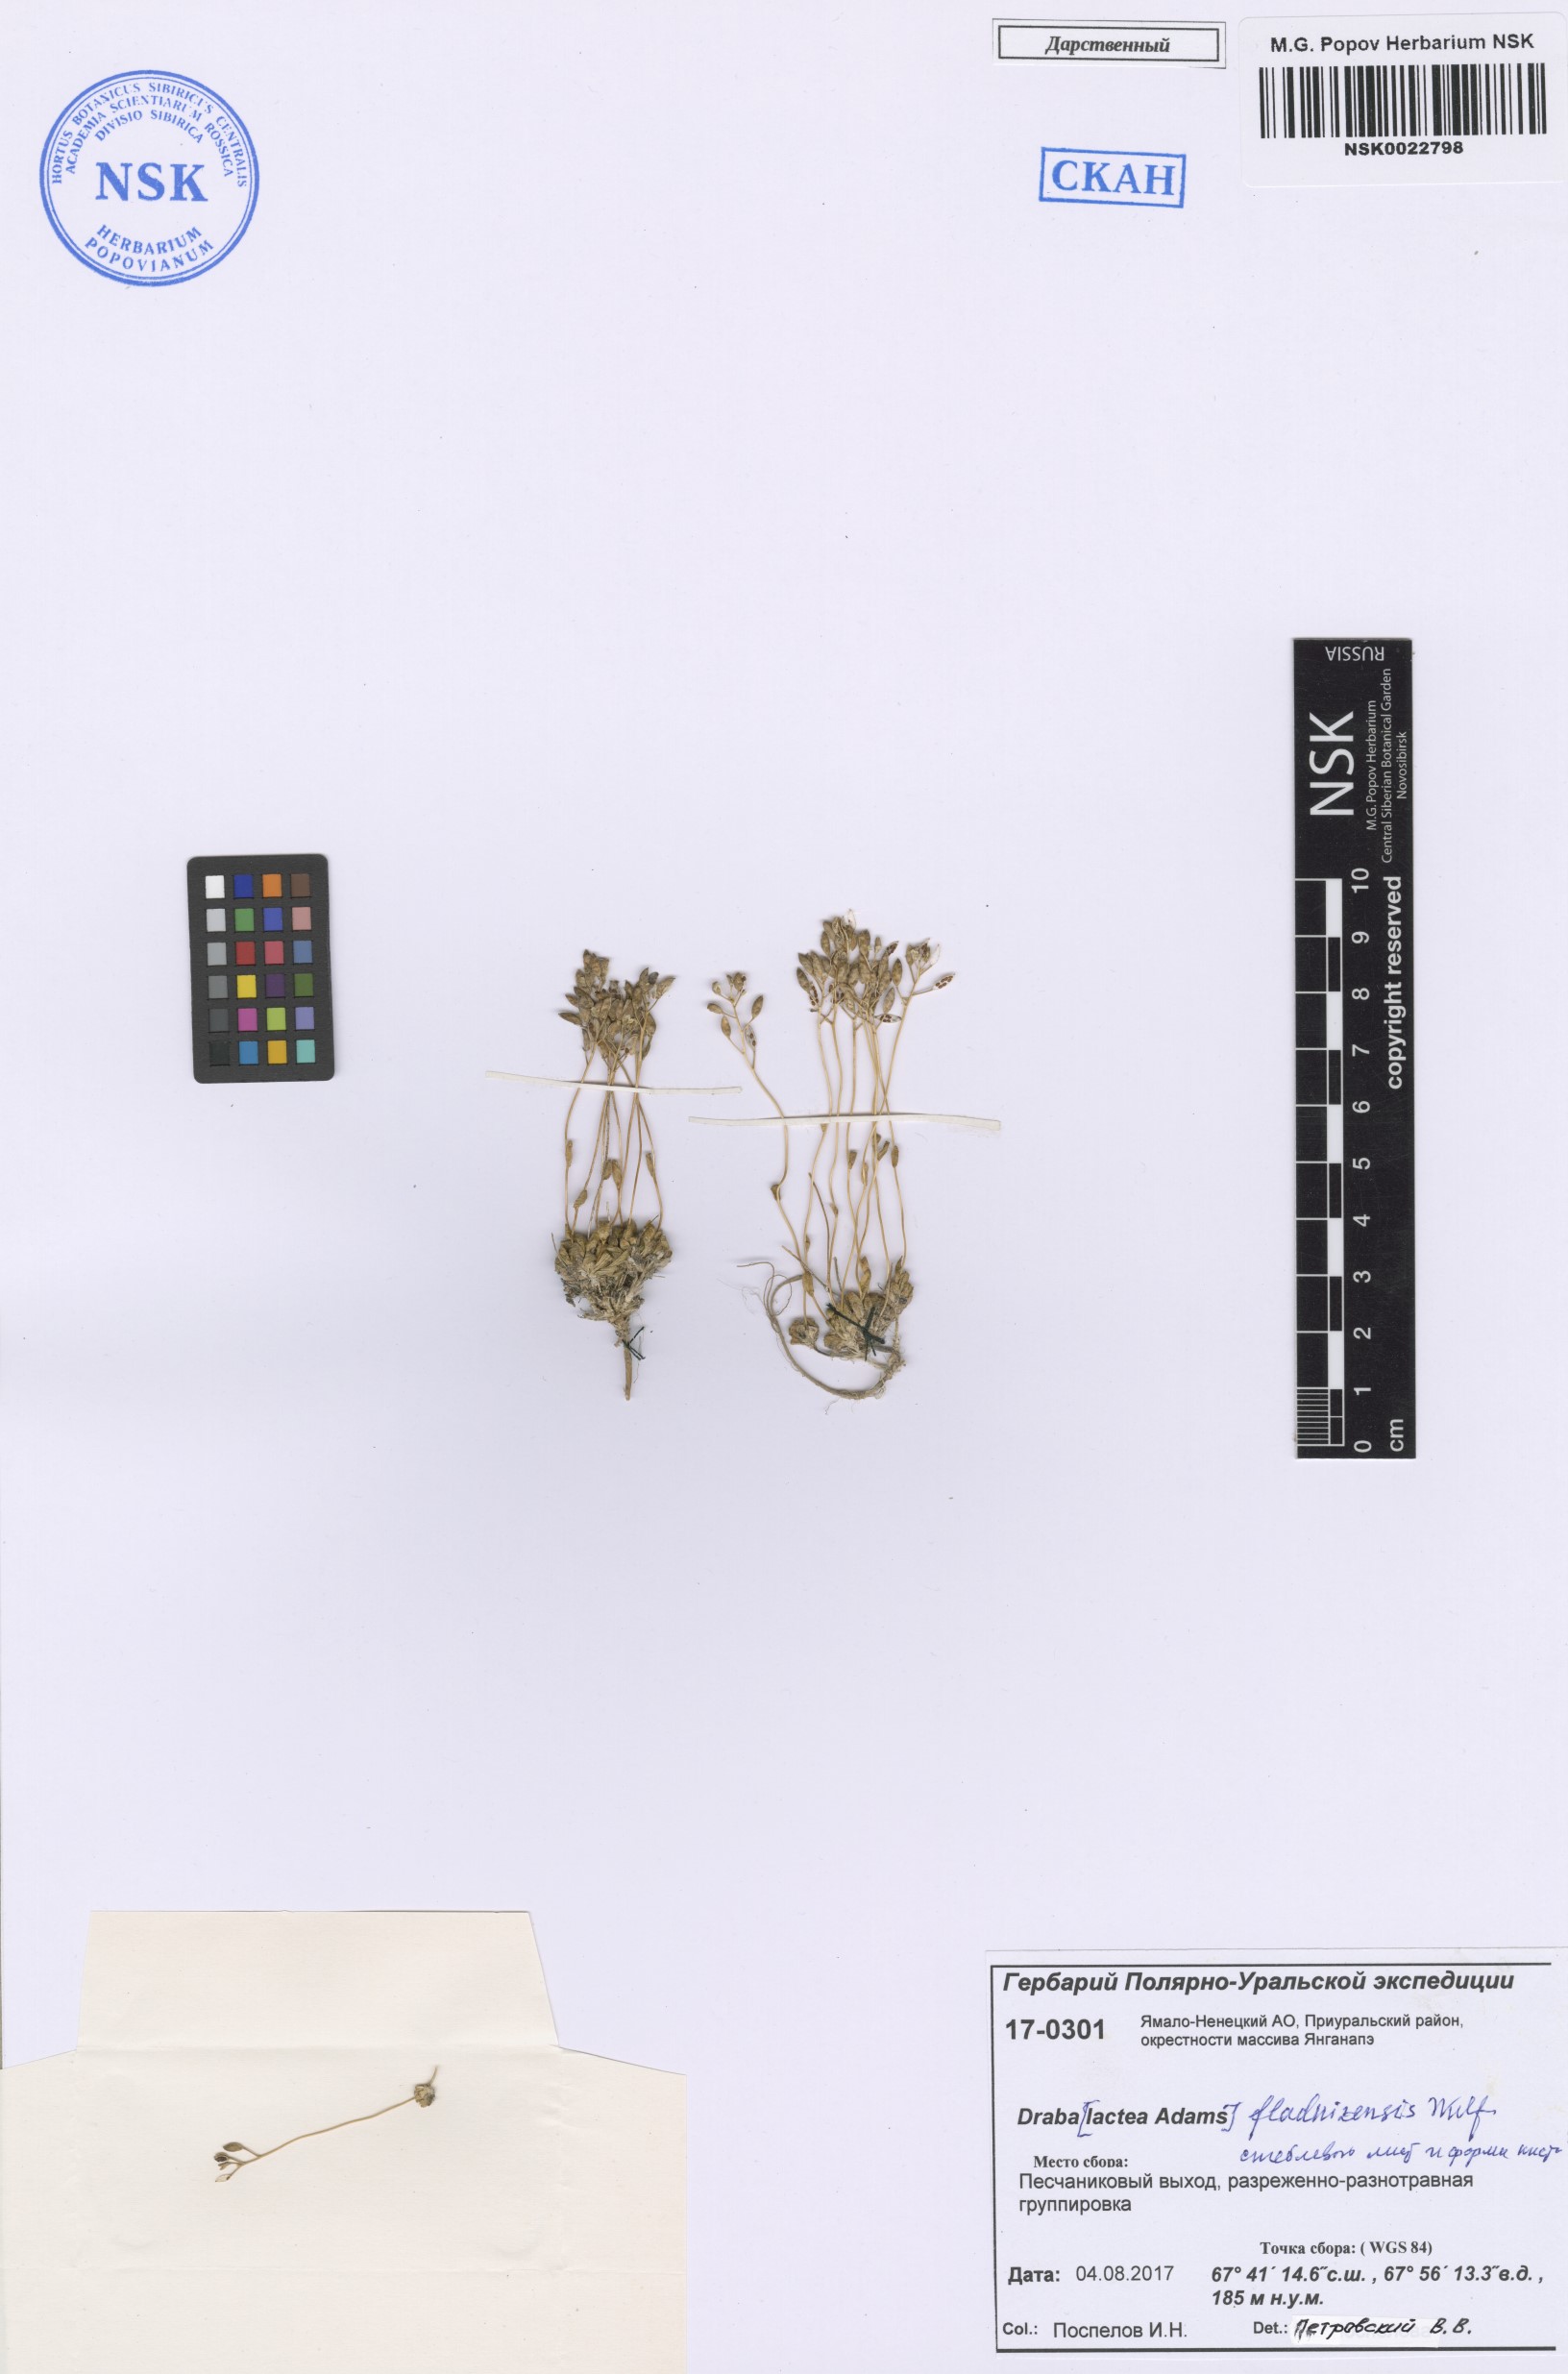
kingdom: Plantae
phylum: Tracheophyta
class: Magnoliopsida
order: Brassicales
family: Brassicaceae
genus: Draba
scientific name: Draba fladnizensis
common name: Austrian draba
